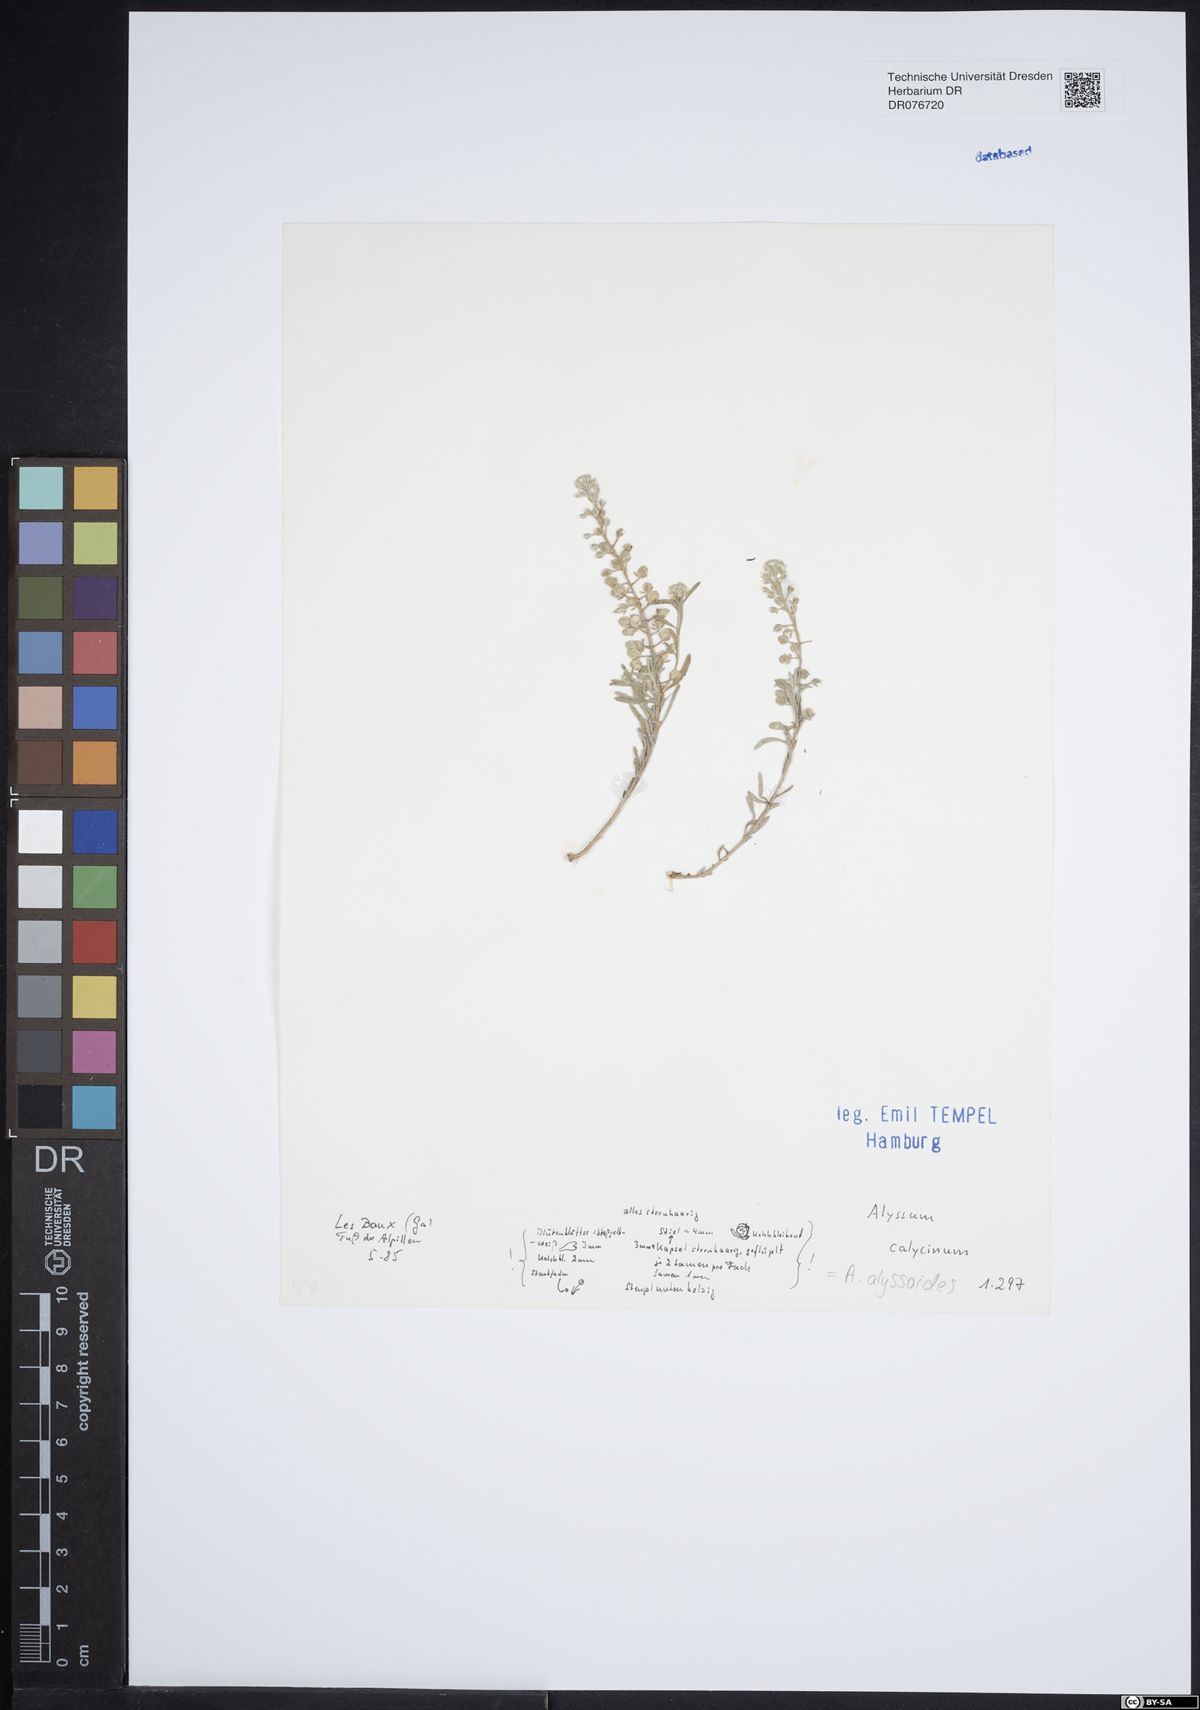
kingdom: Plantae
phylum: Tracheophyta
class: Magnoliopsida
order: Brassicales
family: Brassicaceae
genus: Alyssum
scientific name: Alyssum alyssoides
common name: Small alison
